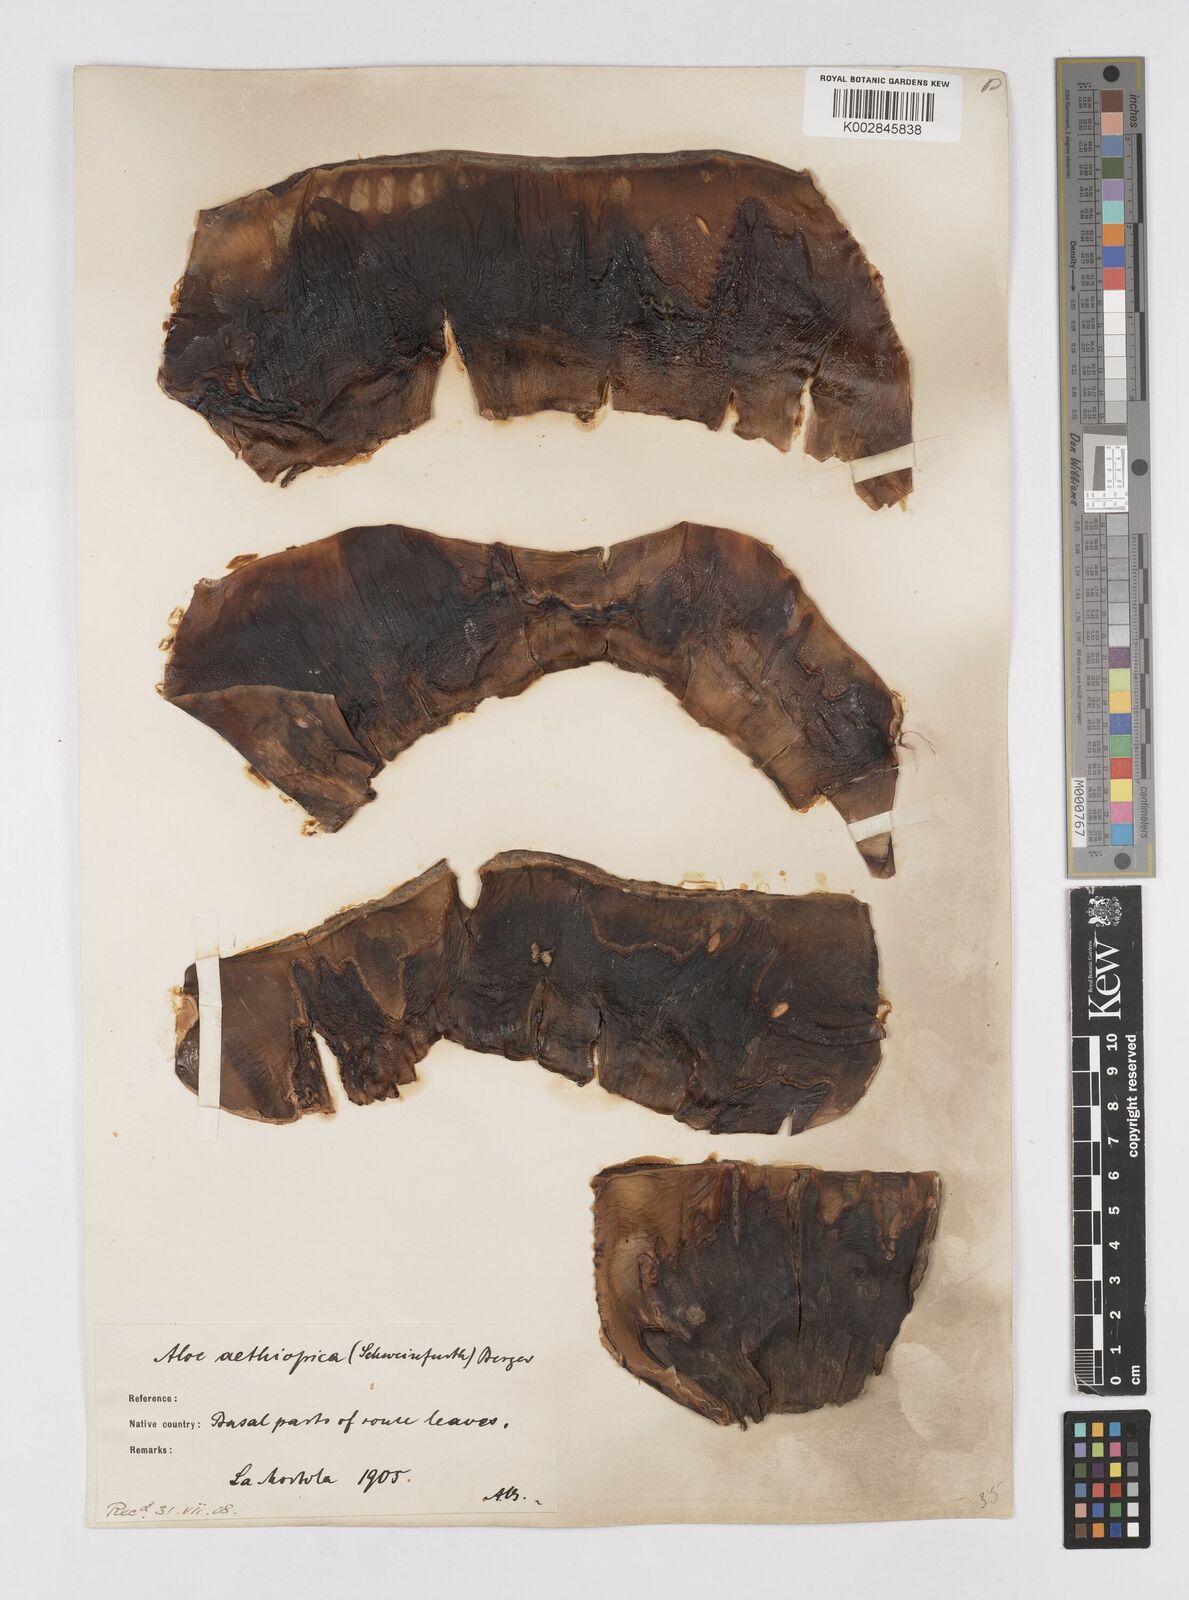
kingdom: Plantae
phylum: Tracheophyta
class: Liliopsida
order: Asparagales
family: Asphodelaceae
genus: Aloe
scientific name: Aloe elegans
